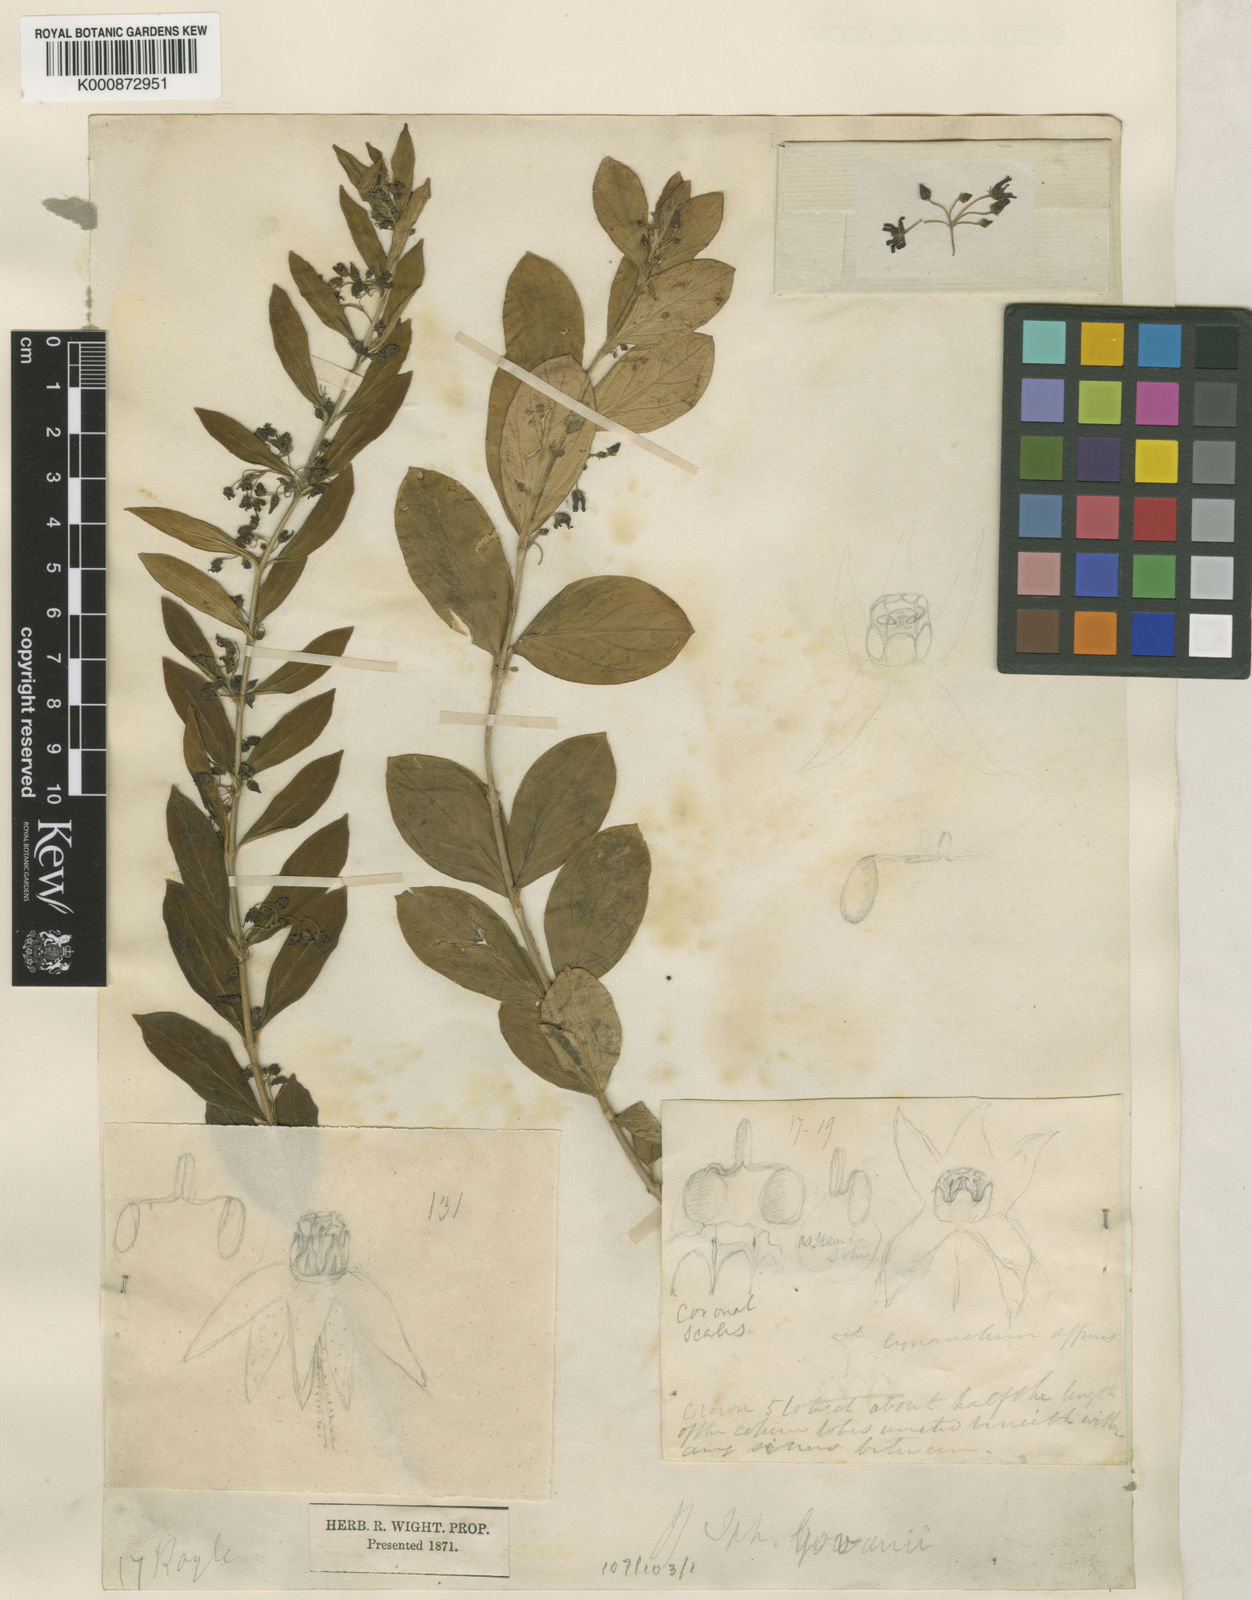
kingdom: Plantae
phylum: Tracheophyta
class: Magnoliopsida
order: Gentianales
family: Apocynaceae
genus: Vincetoxicum
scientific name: Vincetoxicum govanii
